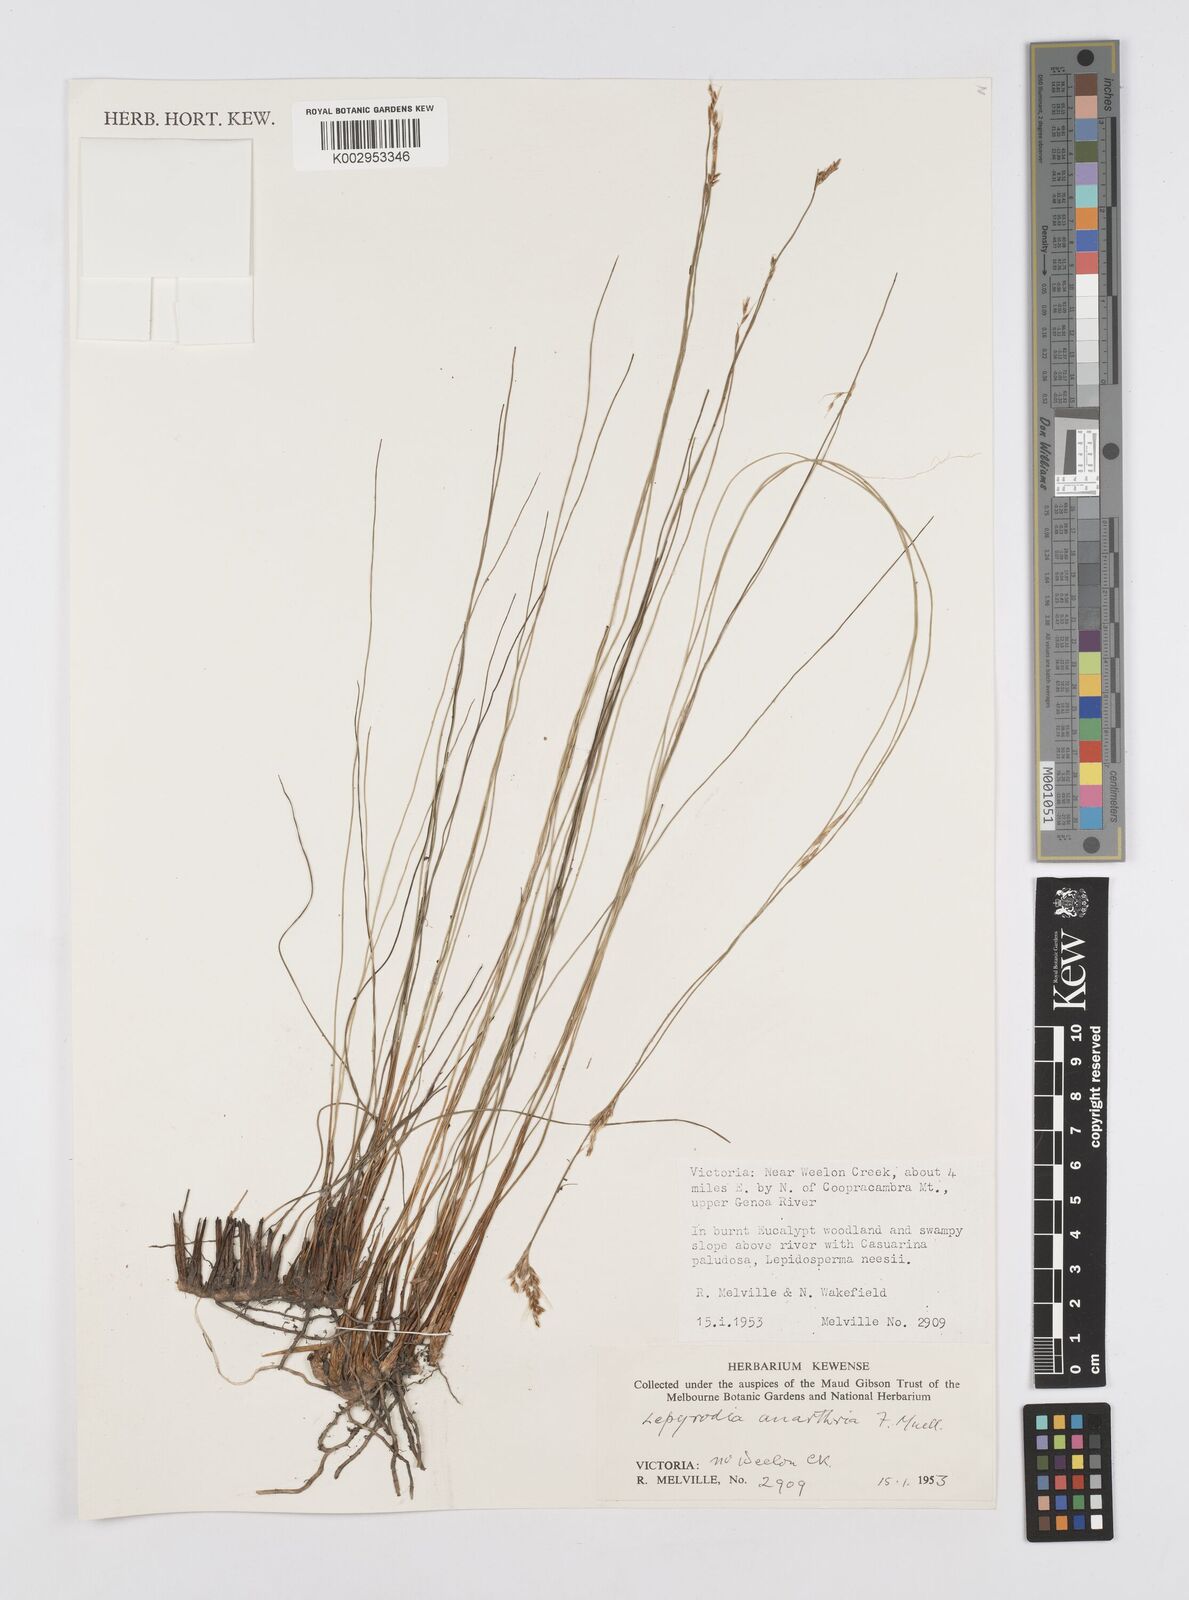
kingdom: Plantae
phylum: Tracheophyta
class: Liliopsida
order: Poales
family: Restionaceae
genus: Lepyrodia
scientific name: Lepyrodia anarthria
